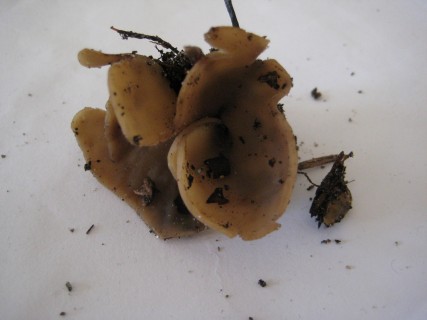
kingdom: Fungi
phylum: Ascomycota
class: Pezizomycetes
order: Pezizales
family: Otideaceae
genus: Otidea
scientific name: Otidea alutacea
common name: læder-ørebæger
